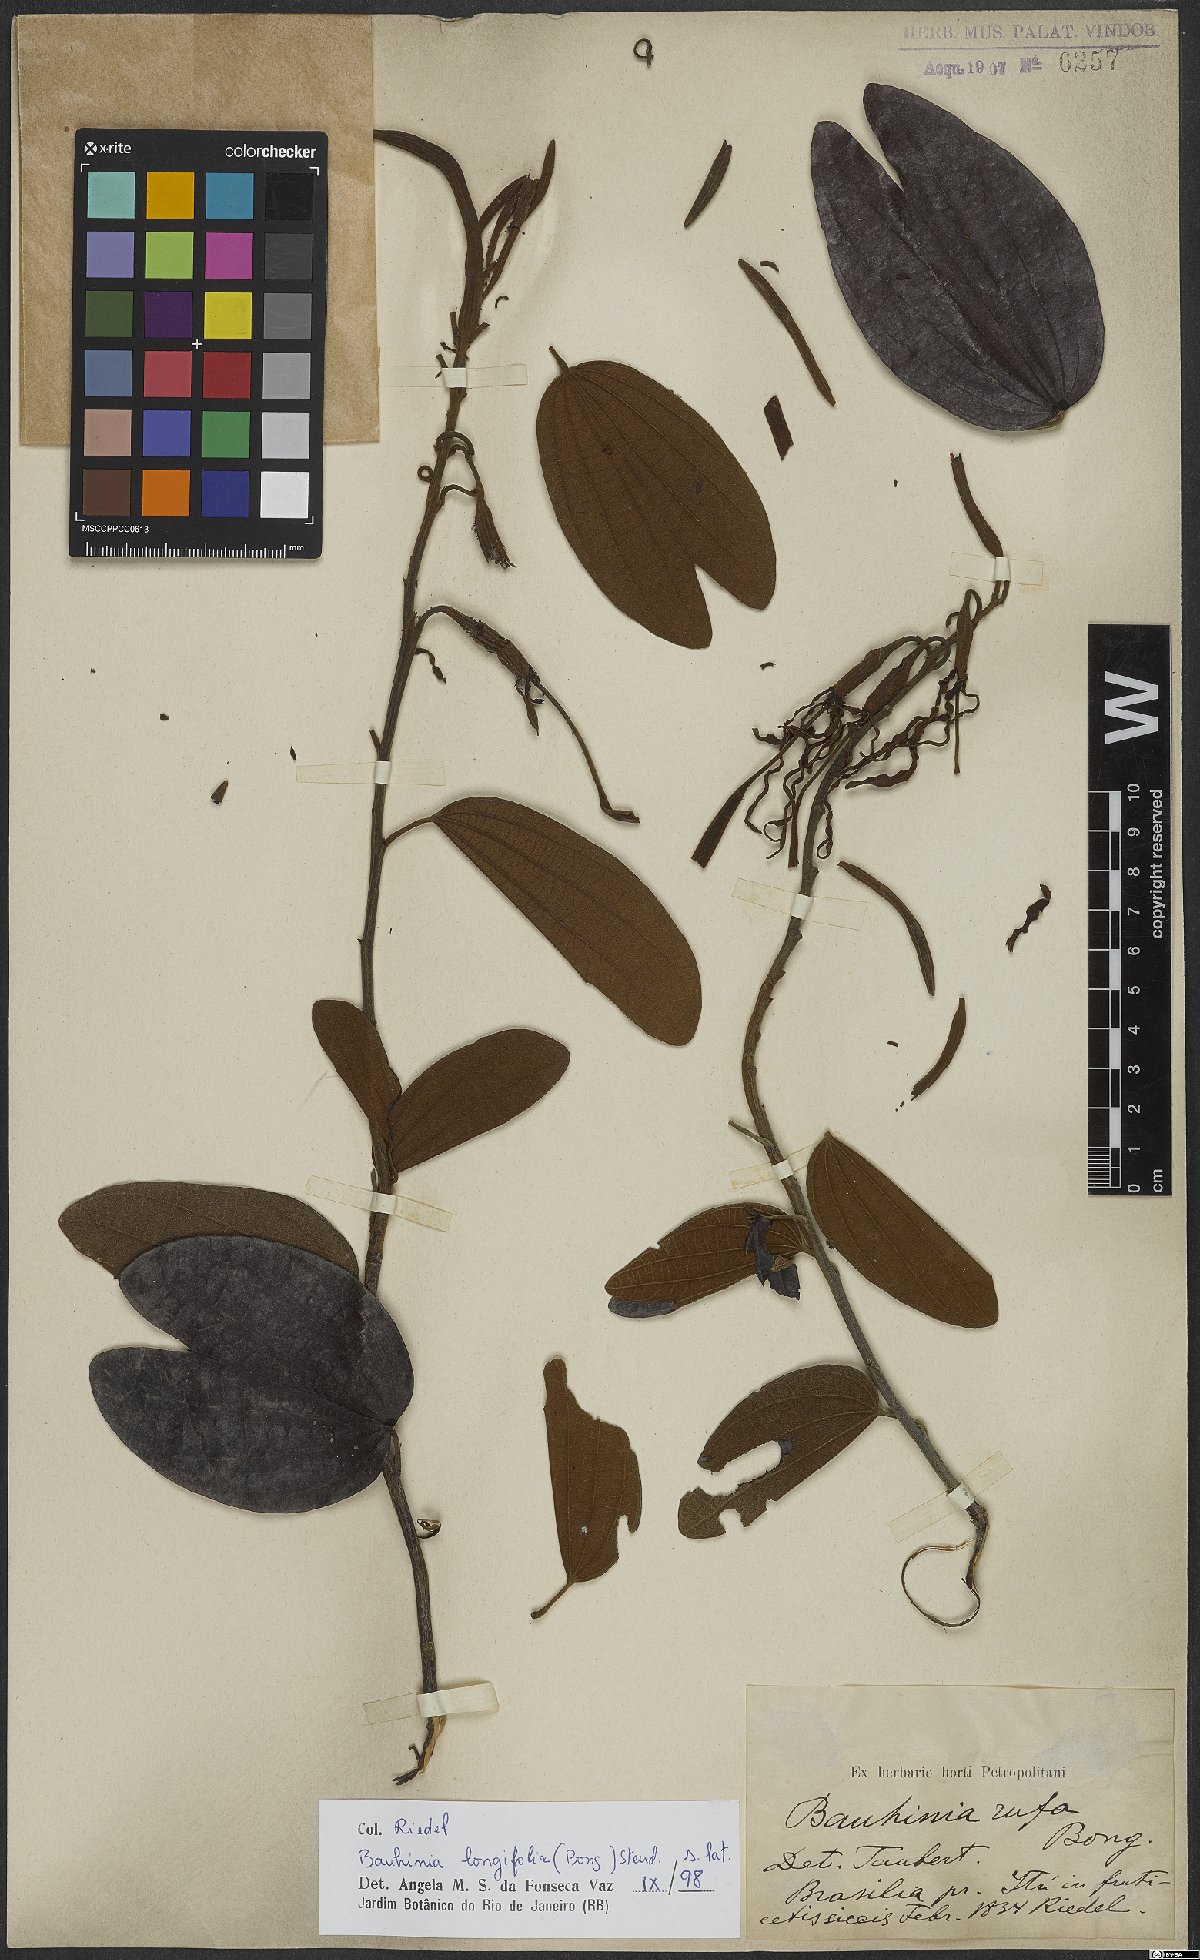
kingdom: Plantae
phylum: Tracheophyta
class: Magnoliopsida
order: Fabales
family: Fabaceae
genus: Bauhinia
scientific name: Bauhinia longifolia
